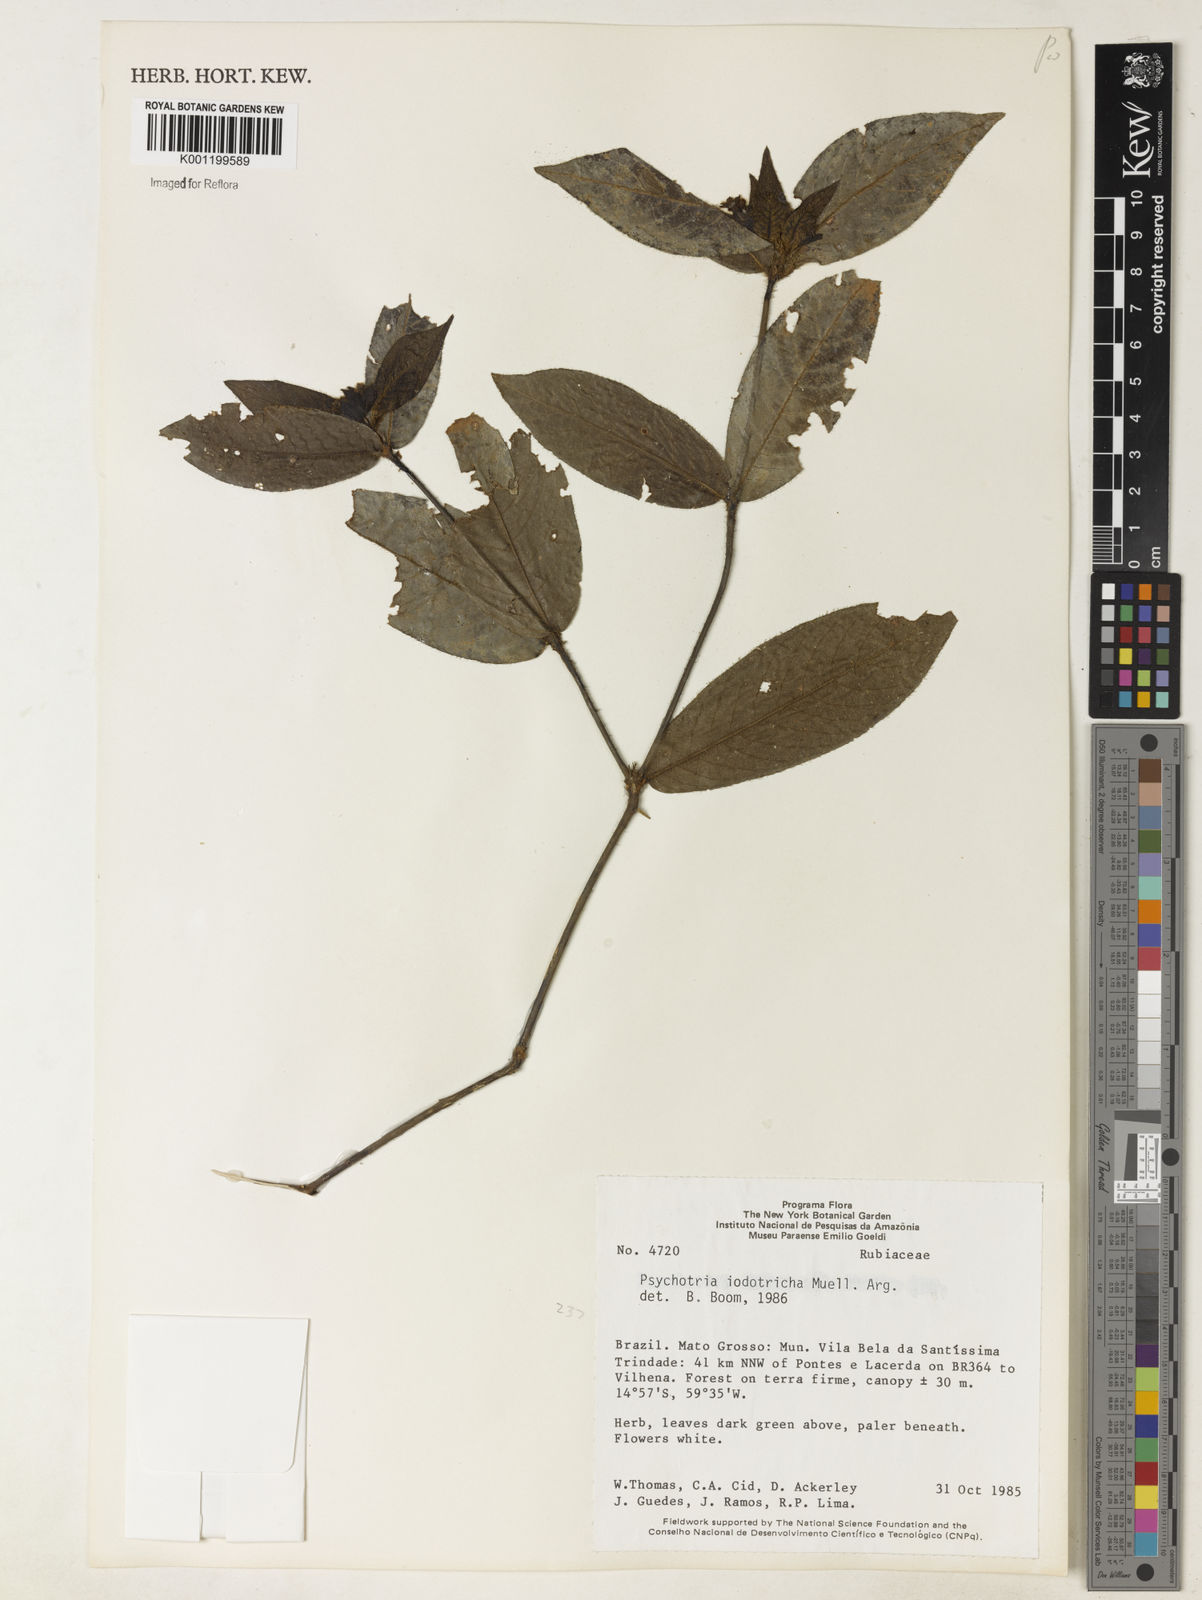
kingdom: Plantae
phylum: Tracheophyta
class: Magnoliopsida
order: Gentianales
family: Rubiaceae
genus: Psychotria
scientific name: Psychotria
